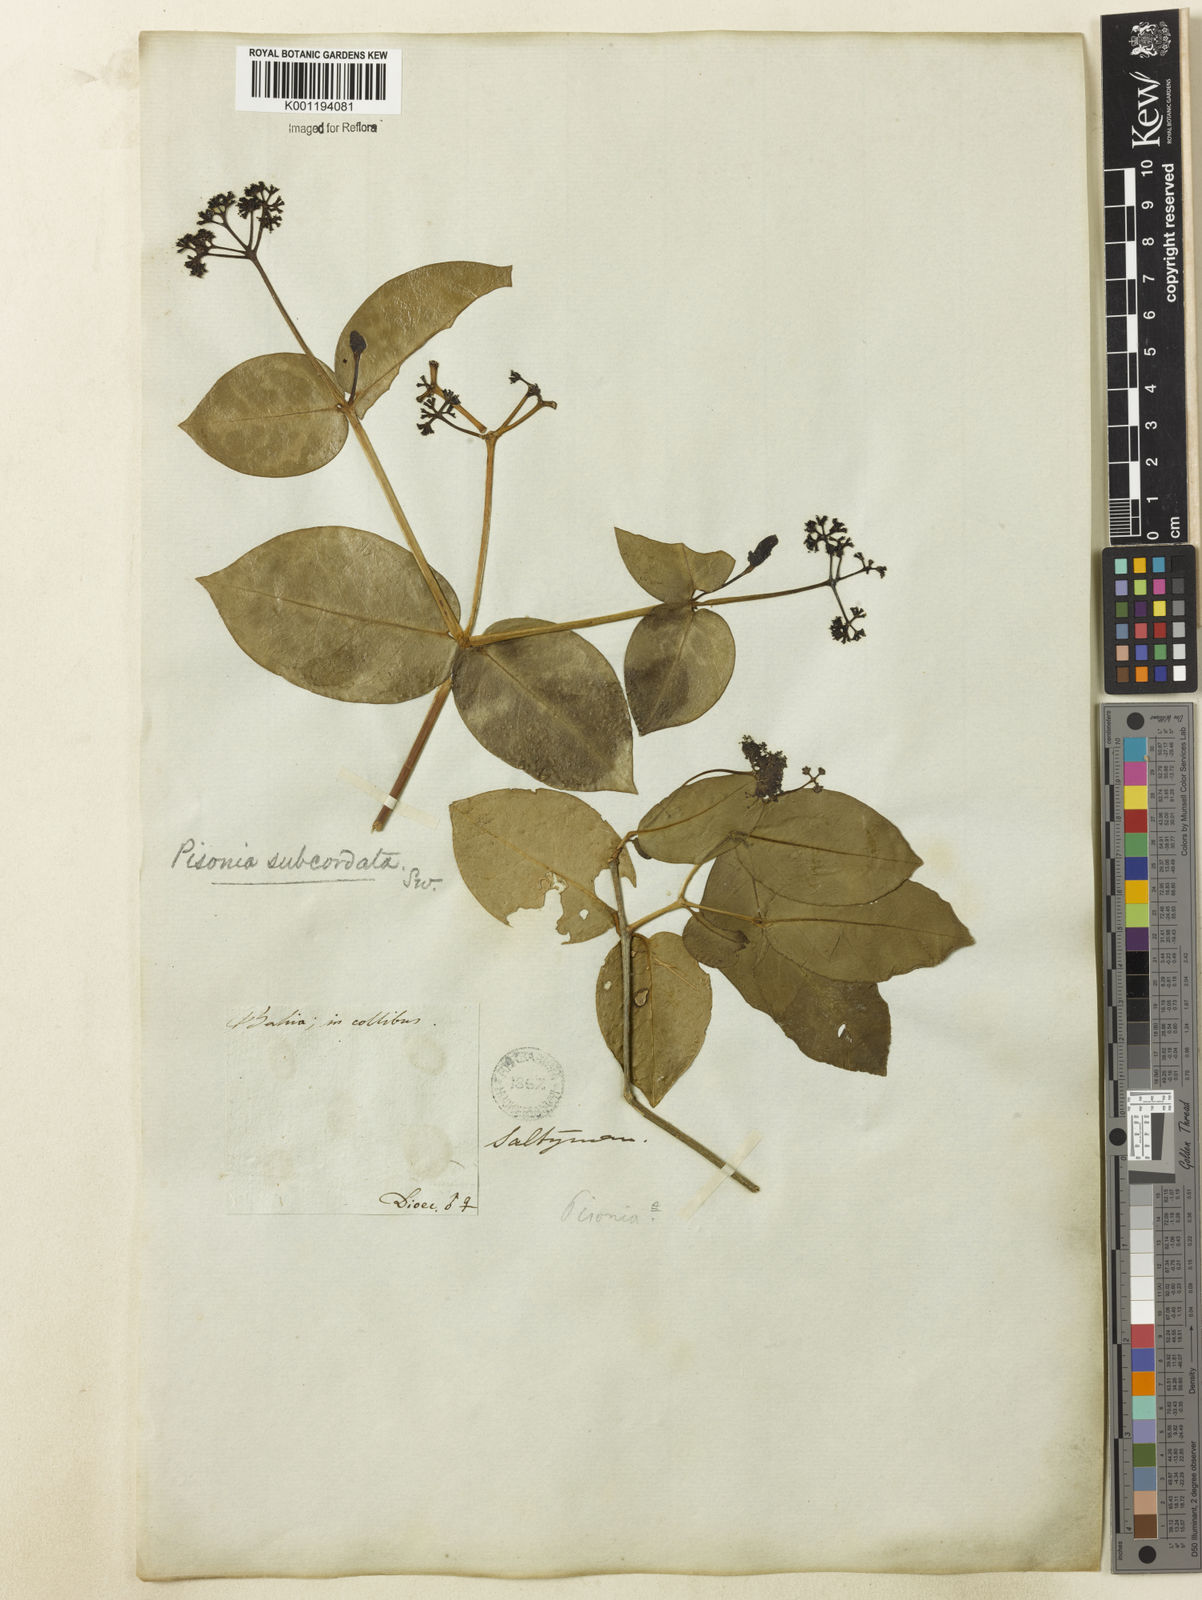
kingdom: Plantae
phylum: Tracheophyta
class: Magnoliopsida
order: Caryophyllales
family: Nyctaginaceae
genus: Guapira
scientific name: Guapira
